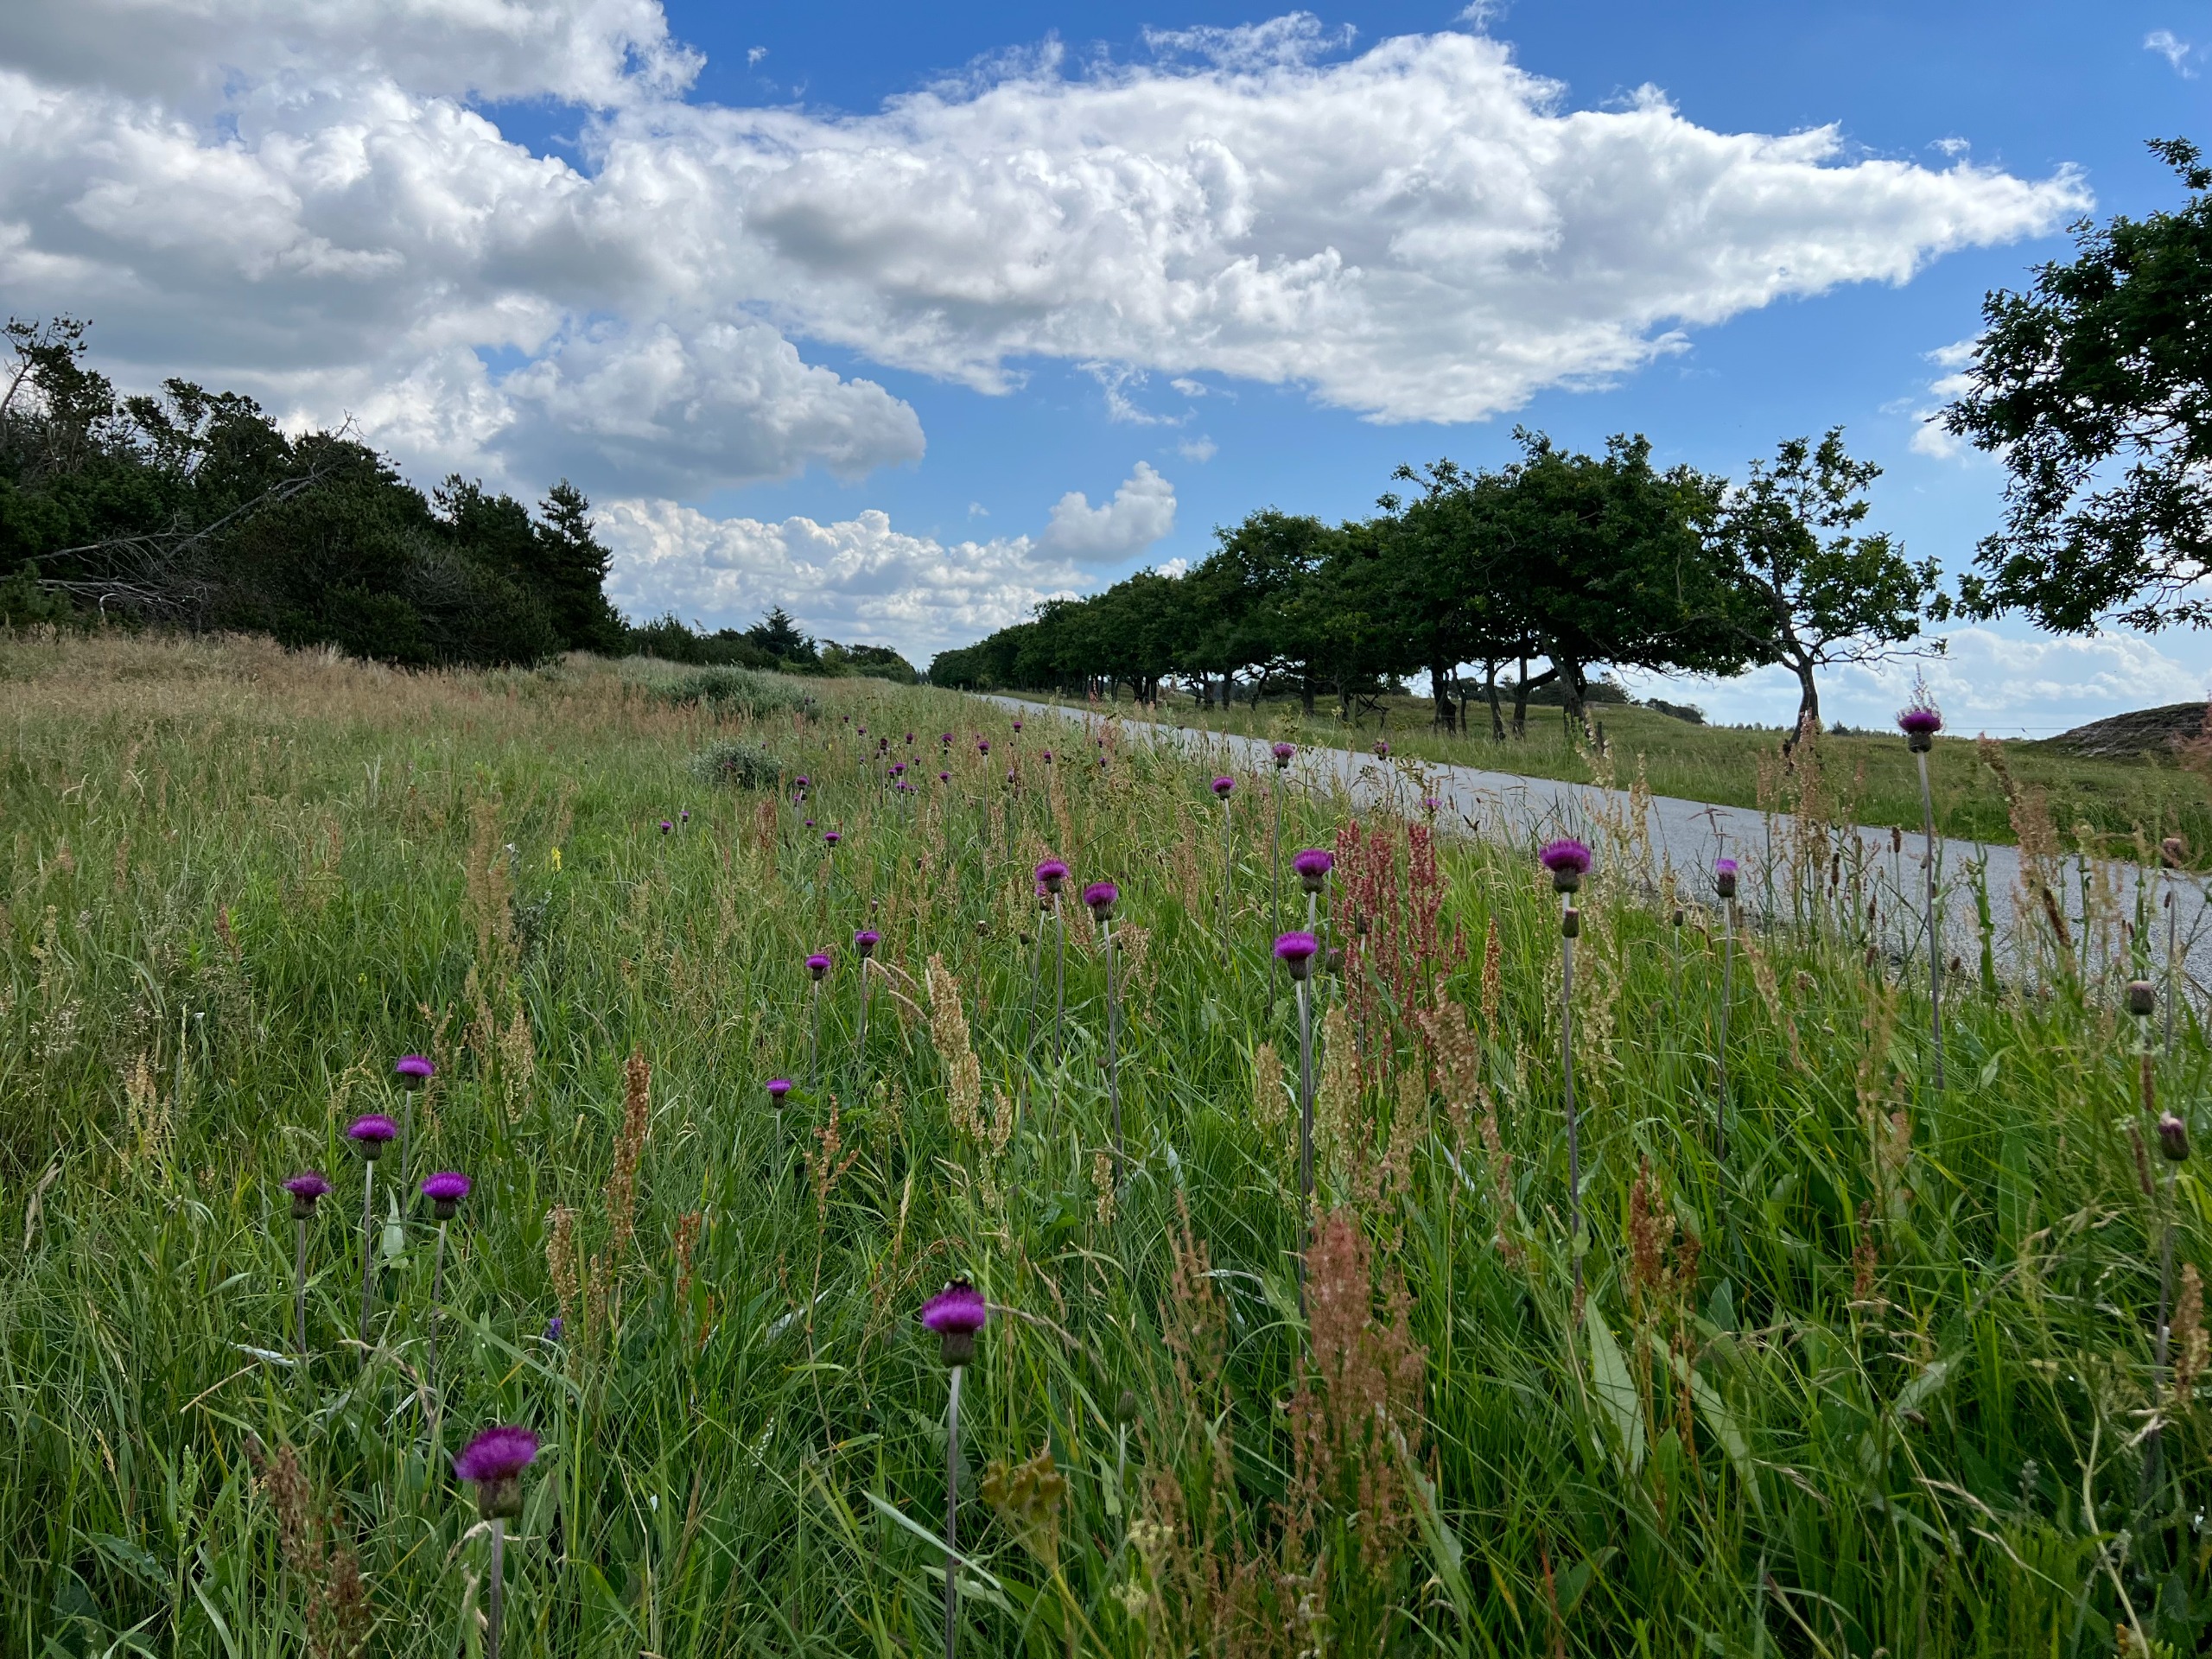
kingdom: Plantae
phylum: Tracheophyta
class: Magnoliopsida
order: Asterales
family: Asteraceae
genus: Cirsium
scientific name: Cirsium heterophyllum
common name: Forskelligbladet tidsel
